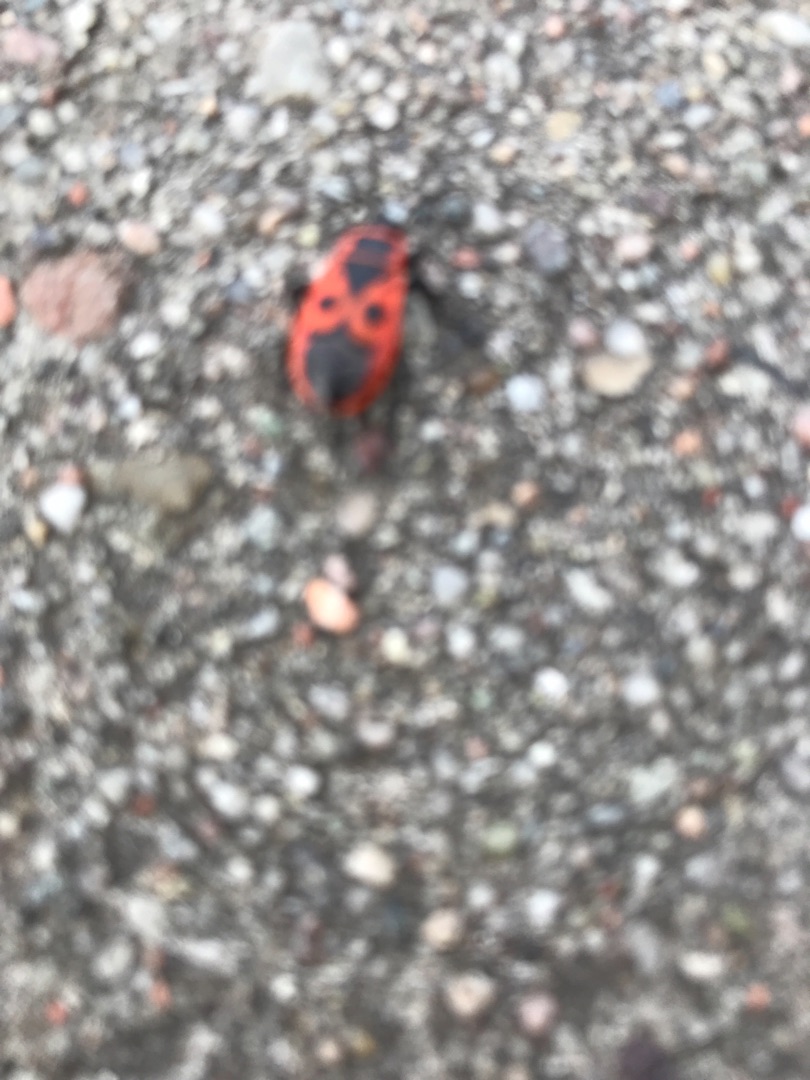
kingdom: Animalia
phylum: Arthropoda
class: Insecta
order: Hemiptera
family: Pyrrhocoridae
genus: Pyrrhocoris
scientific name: Pyrrhocoris apterus
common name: Ildtæge
